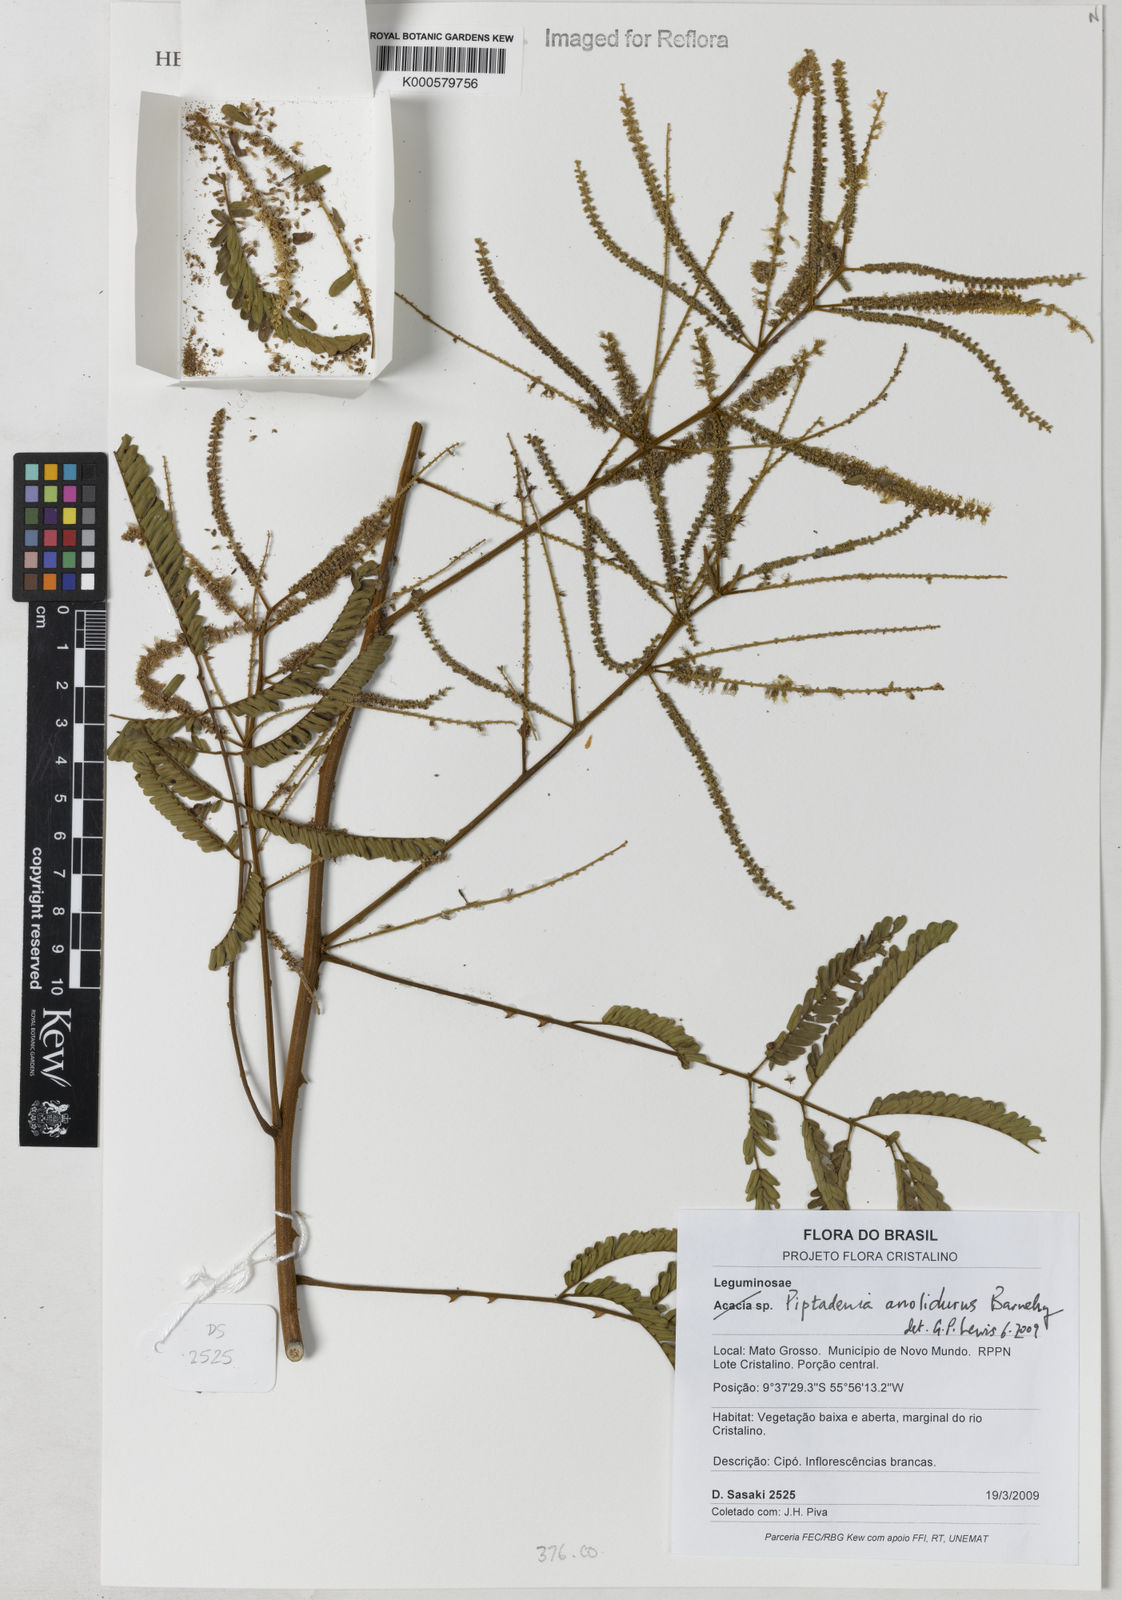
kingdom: Plantae
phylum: Tracheophyta
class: Magnoliopsida
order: Fabales
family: Fabaceae
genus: Piptadenia
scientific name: Piptadenia anolidurus
